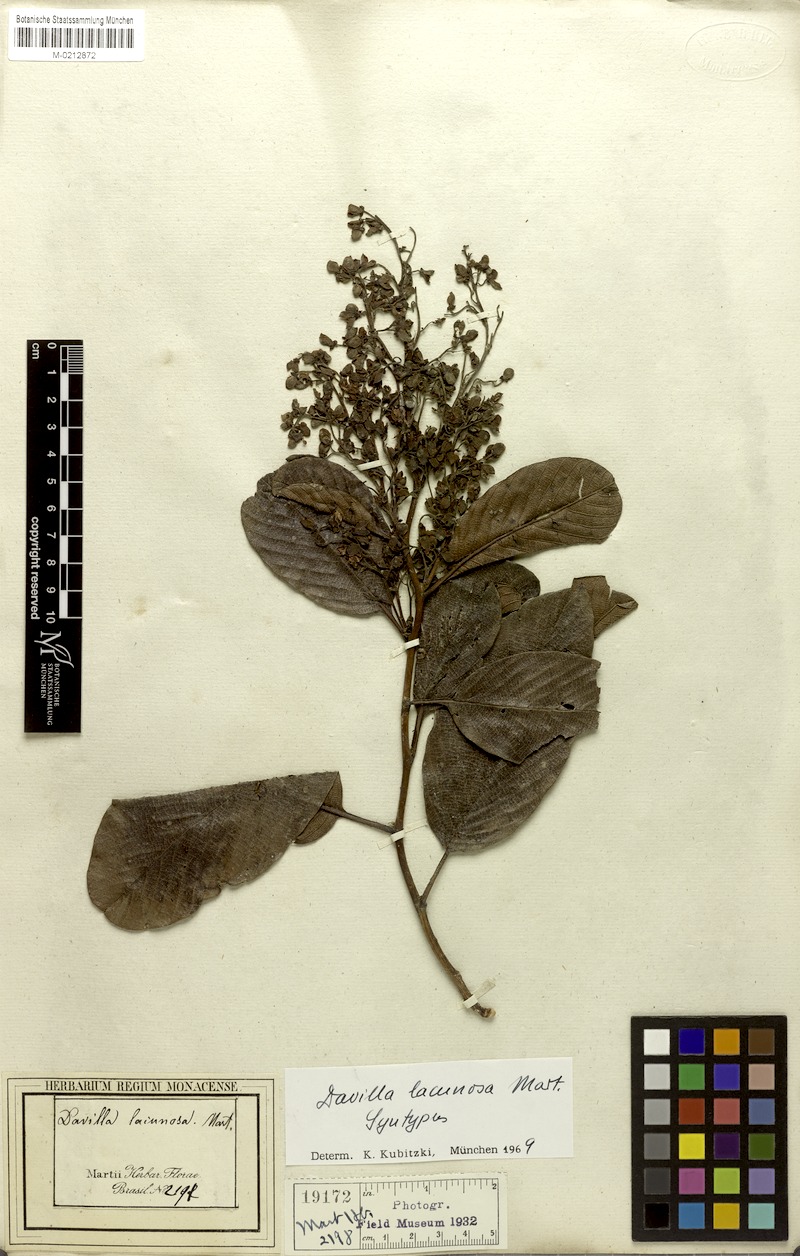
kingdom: Plantae
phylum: Tracheophyta
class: Magnoliopsida
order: Dilleniales
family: Dilleniaceae
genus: Davilla
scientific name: Davilla lacunosa
